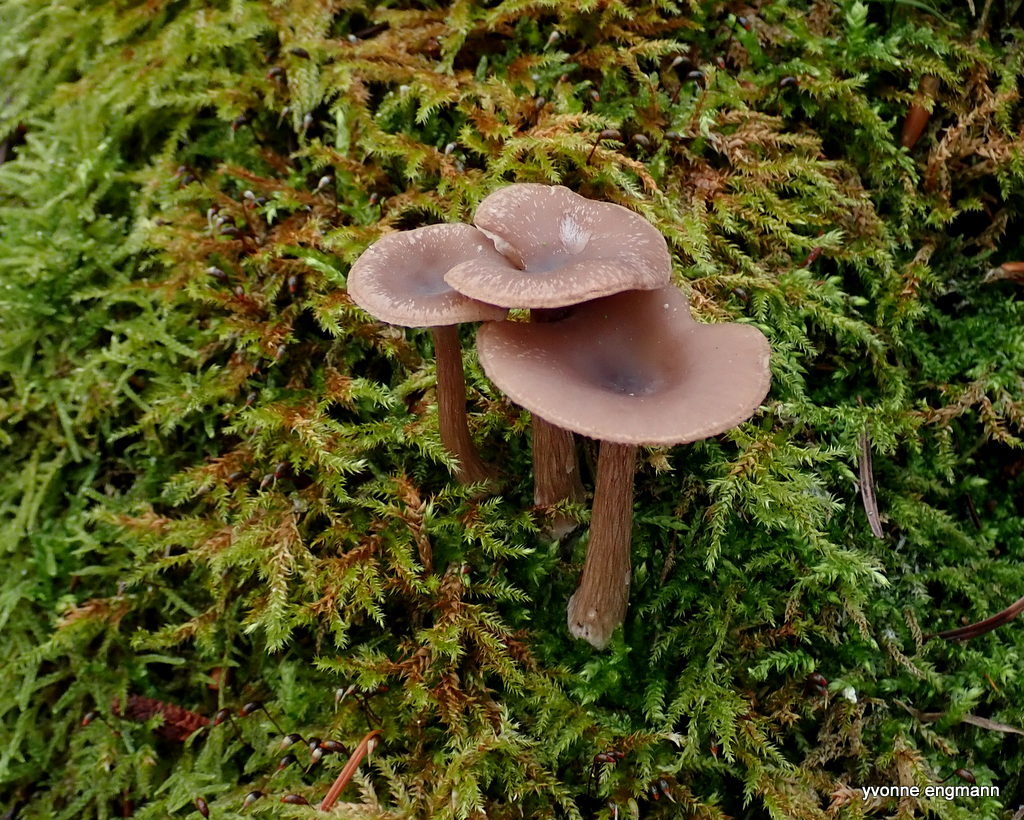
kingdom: Fungi
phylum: Basidiomycota
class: Agaricomycetes
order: Agaricales
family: Pseudoclitocybaceae
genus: Pseudoclitocybe
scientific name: Pseudoclitocybe cyathiformis
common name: almindelig bægertragthat
